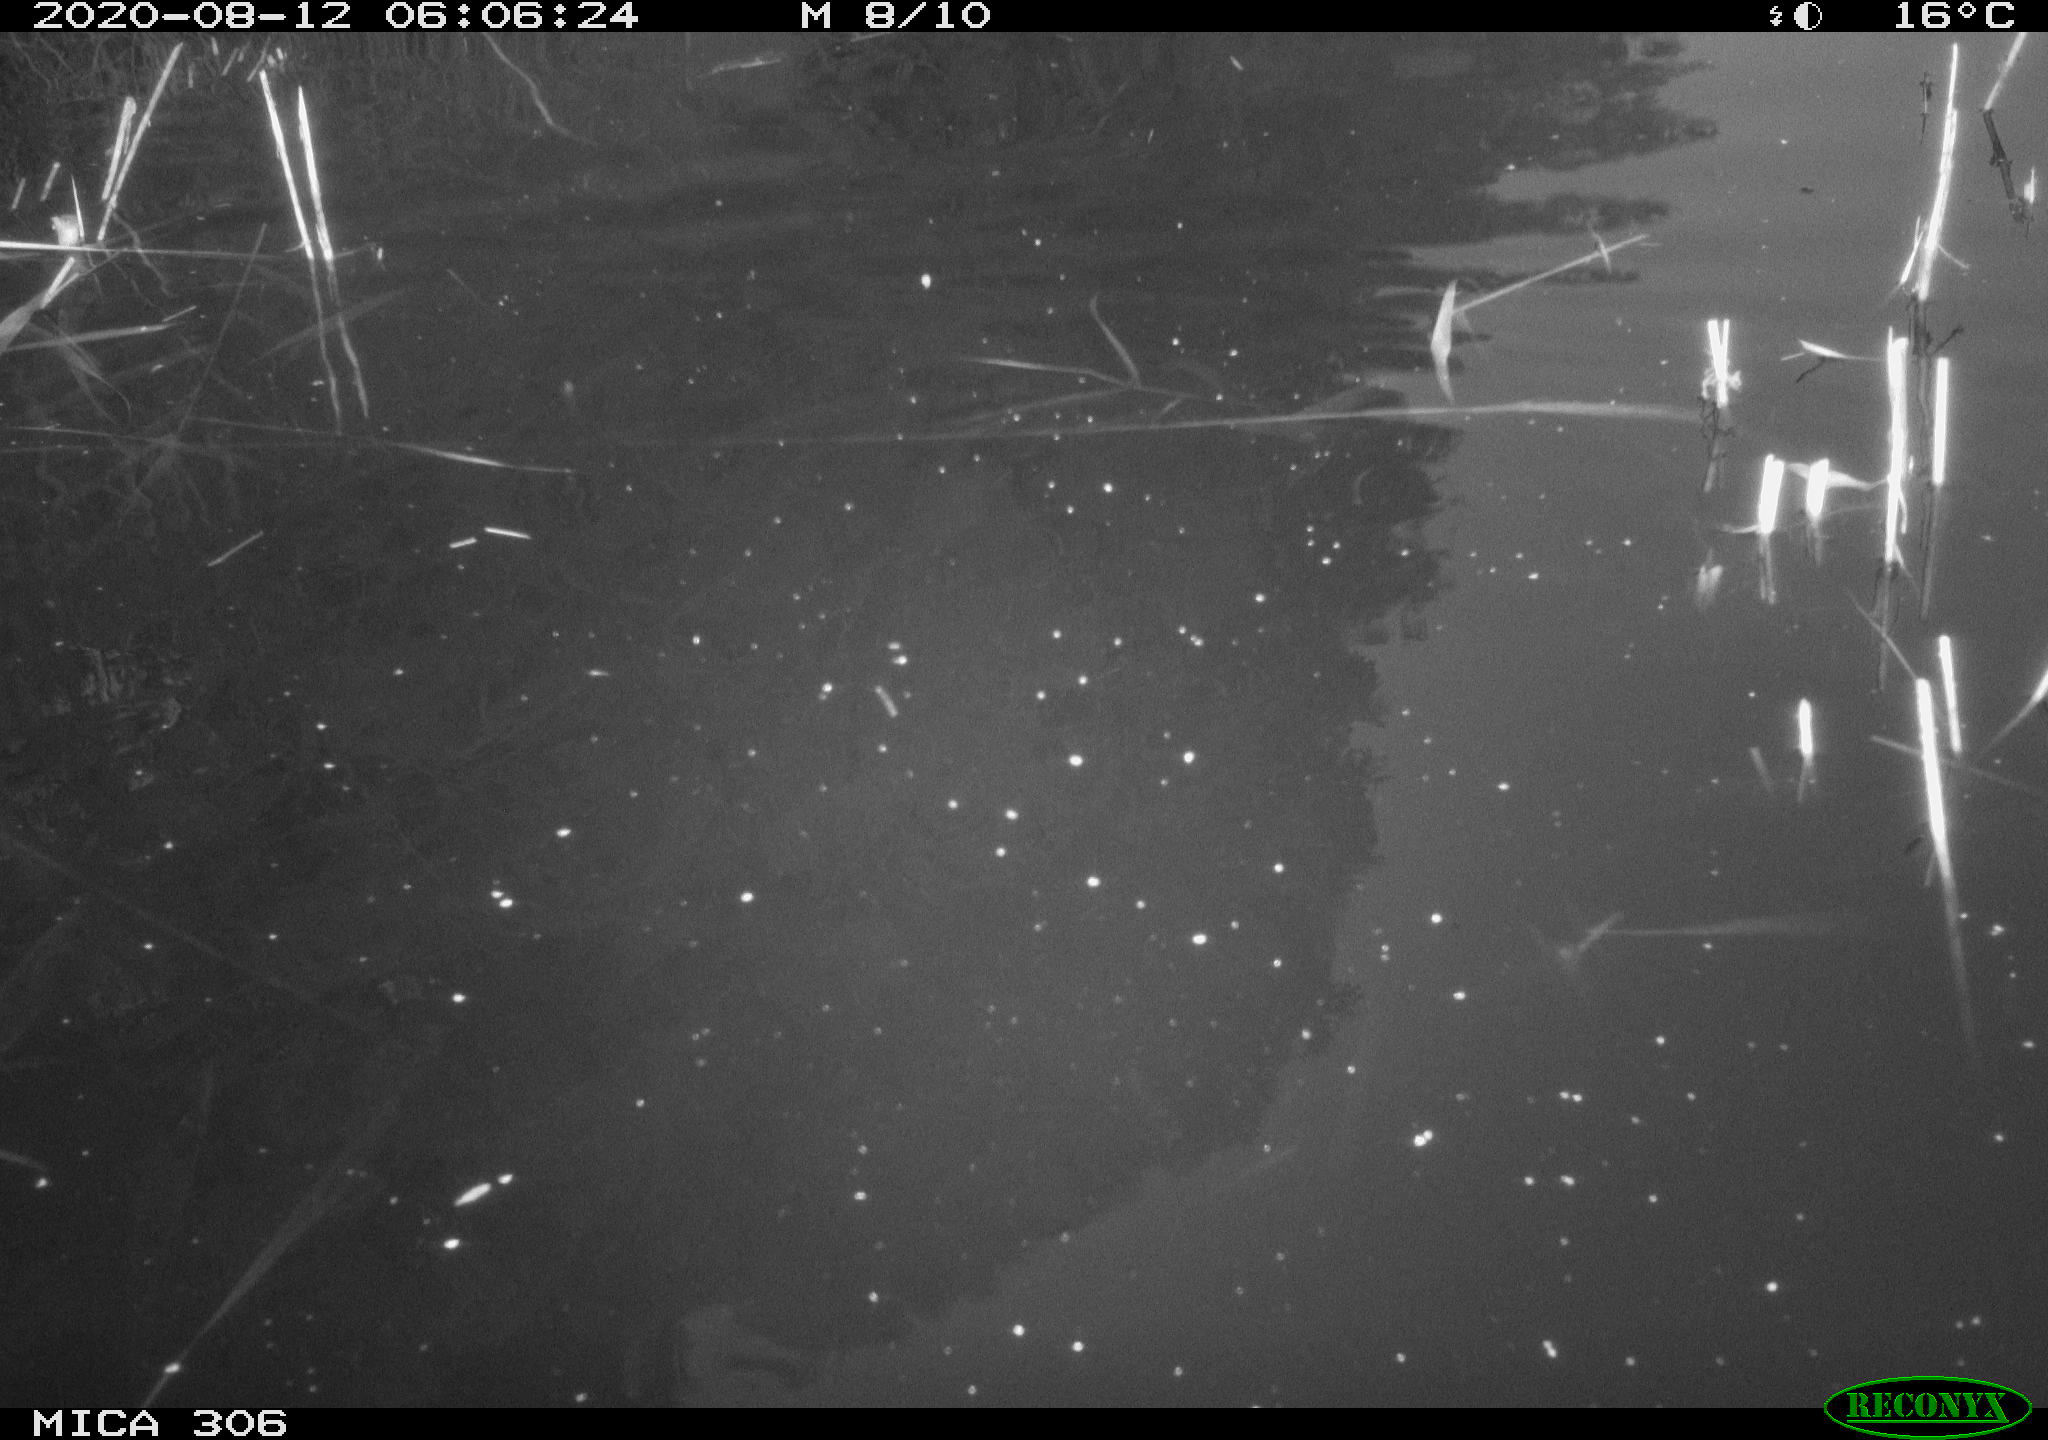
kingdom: Animalia
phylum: Chordata
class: Mammalia
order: Rodentia
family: Muridae
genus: Rattus
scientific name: Rattus norvegicus
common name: Brown rat
